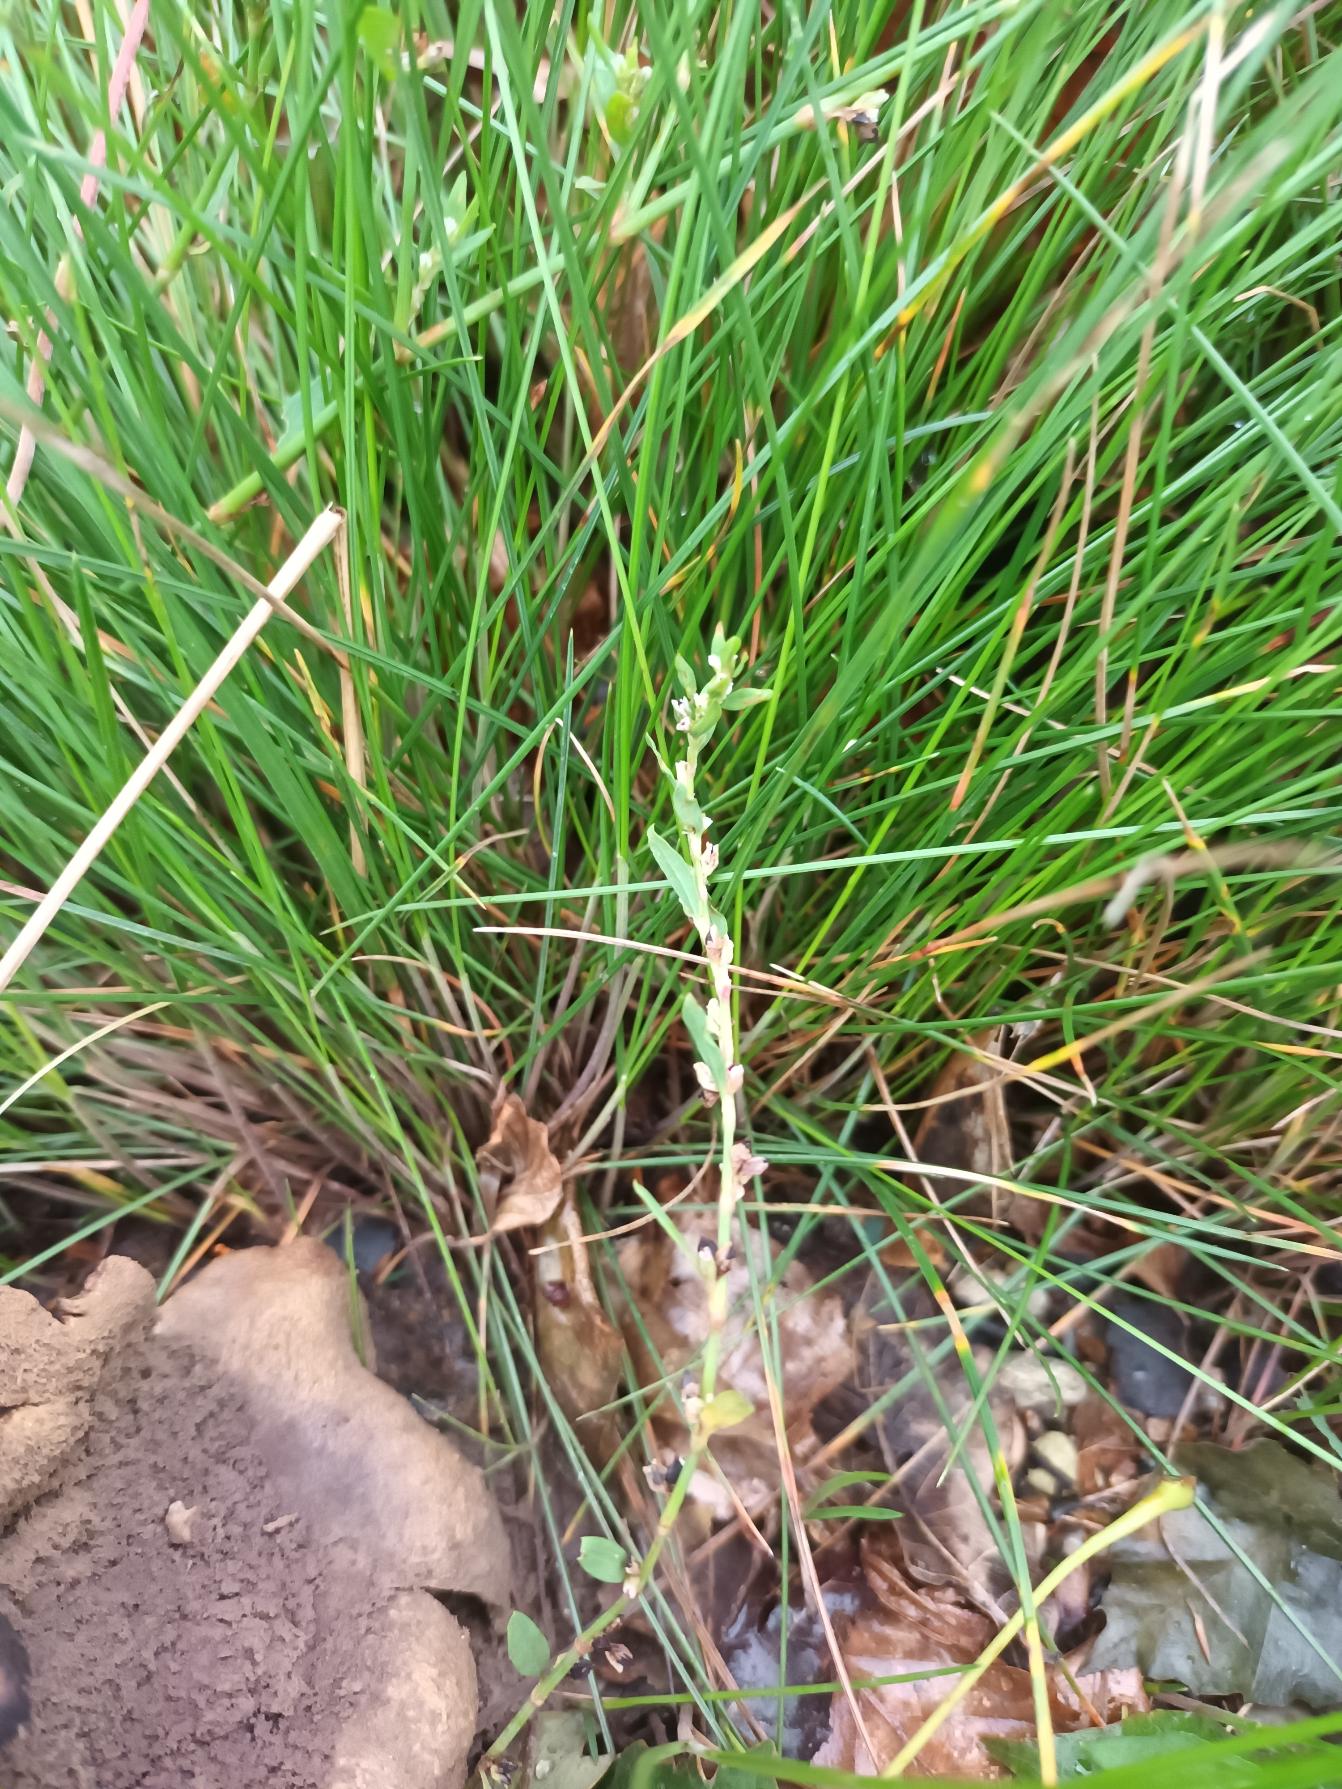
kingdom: Plantae
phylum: Tracheophyta
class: Liliopsida
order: Poales
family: Poaceae
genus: Festuca
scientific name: Festuca nigrescens
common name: Vej-svingel
